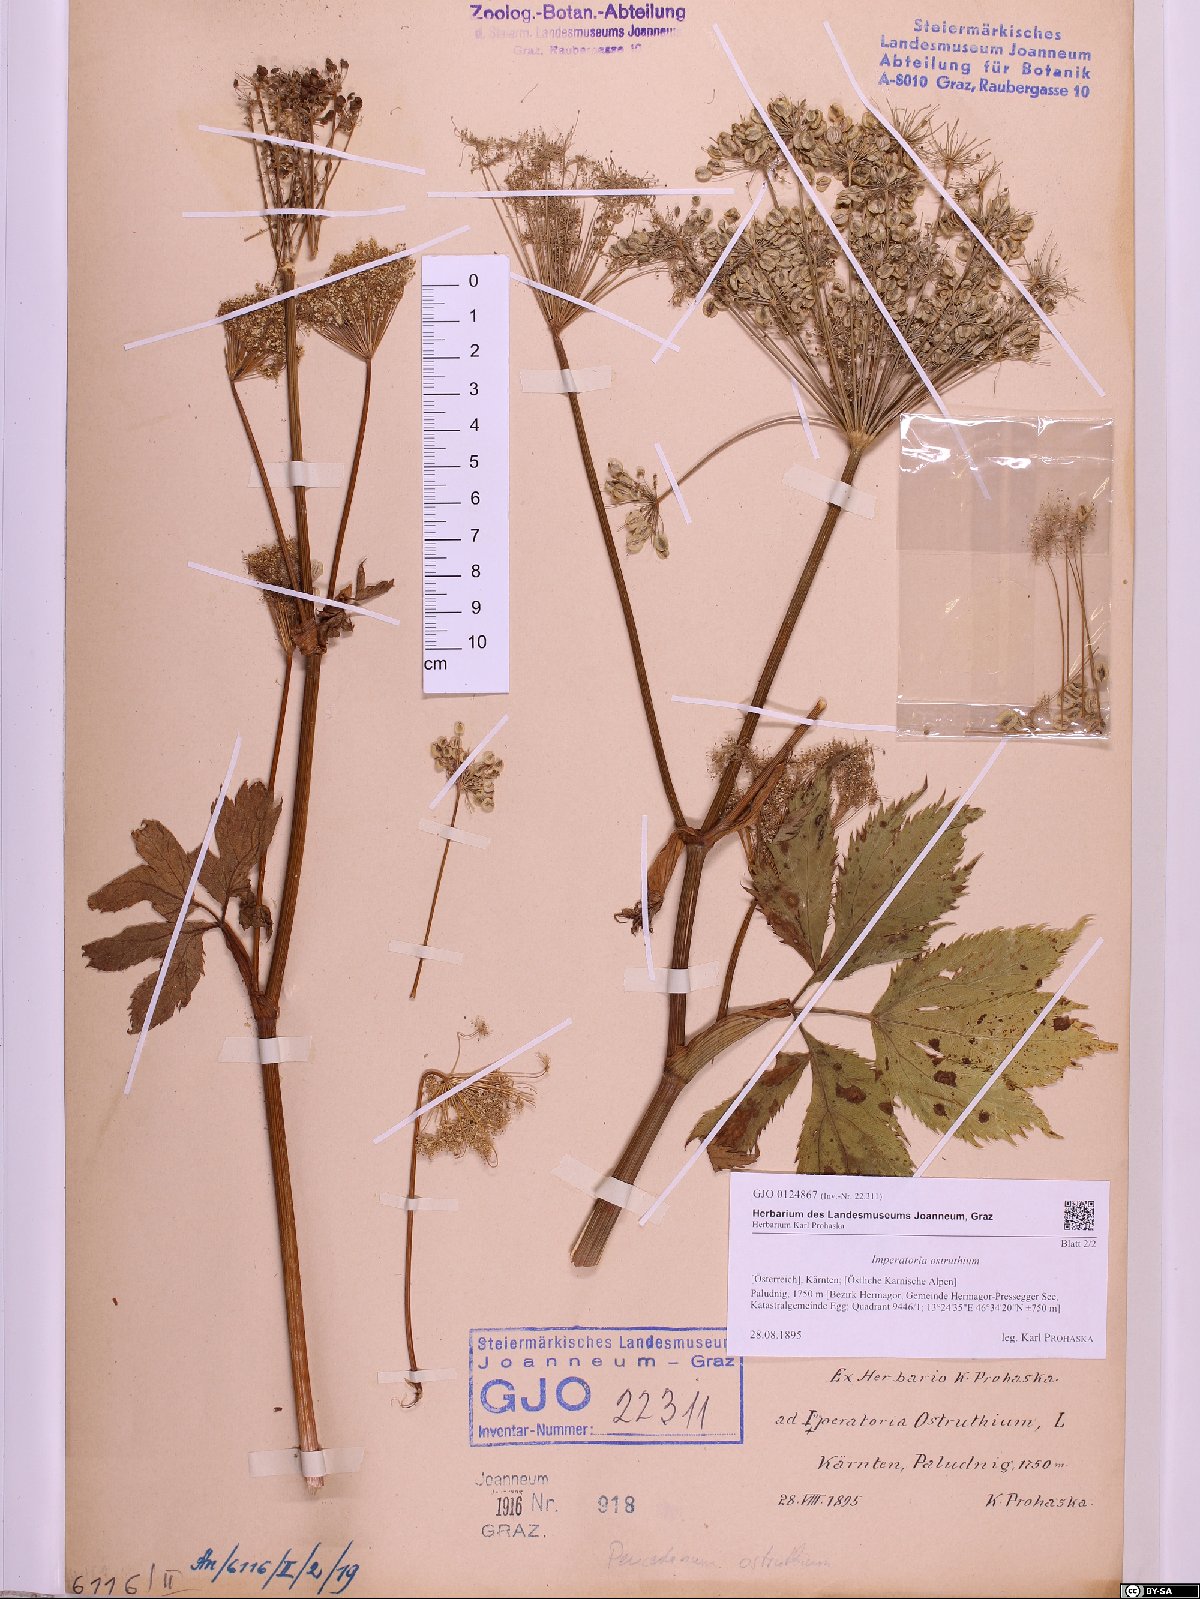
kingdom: Plantae
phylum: Tracheophyta
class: Magnoliopsida
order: Apiales
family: Apiaceae
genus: Imperatoria
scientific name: Imperatoria ostruthium
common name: Masterwort
